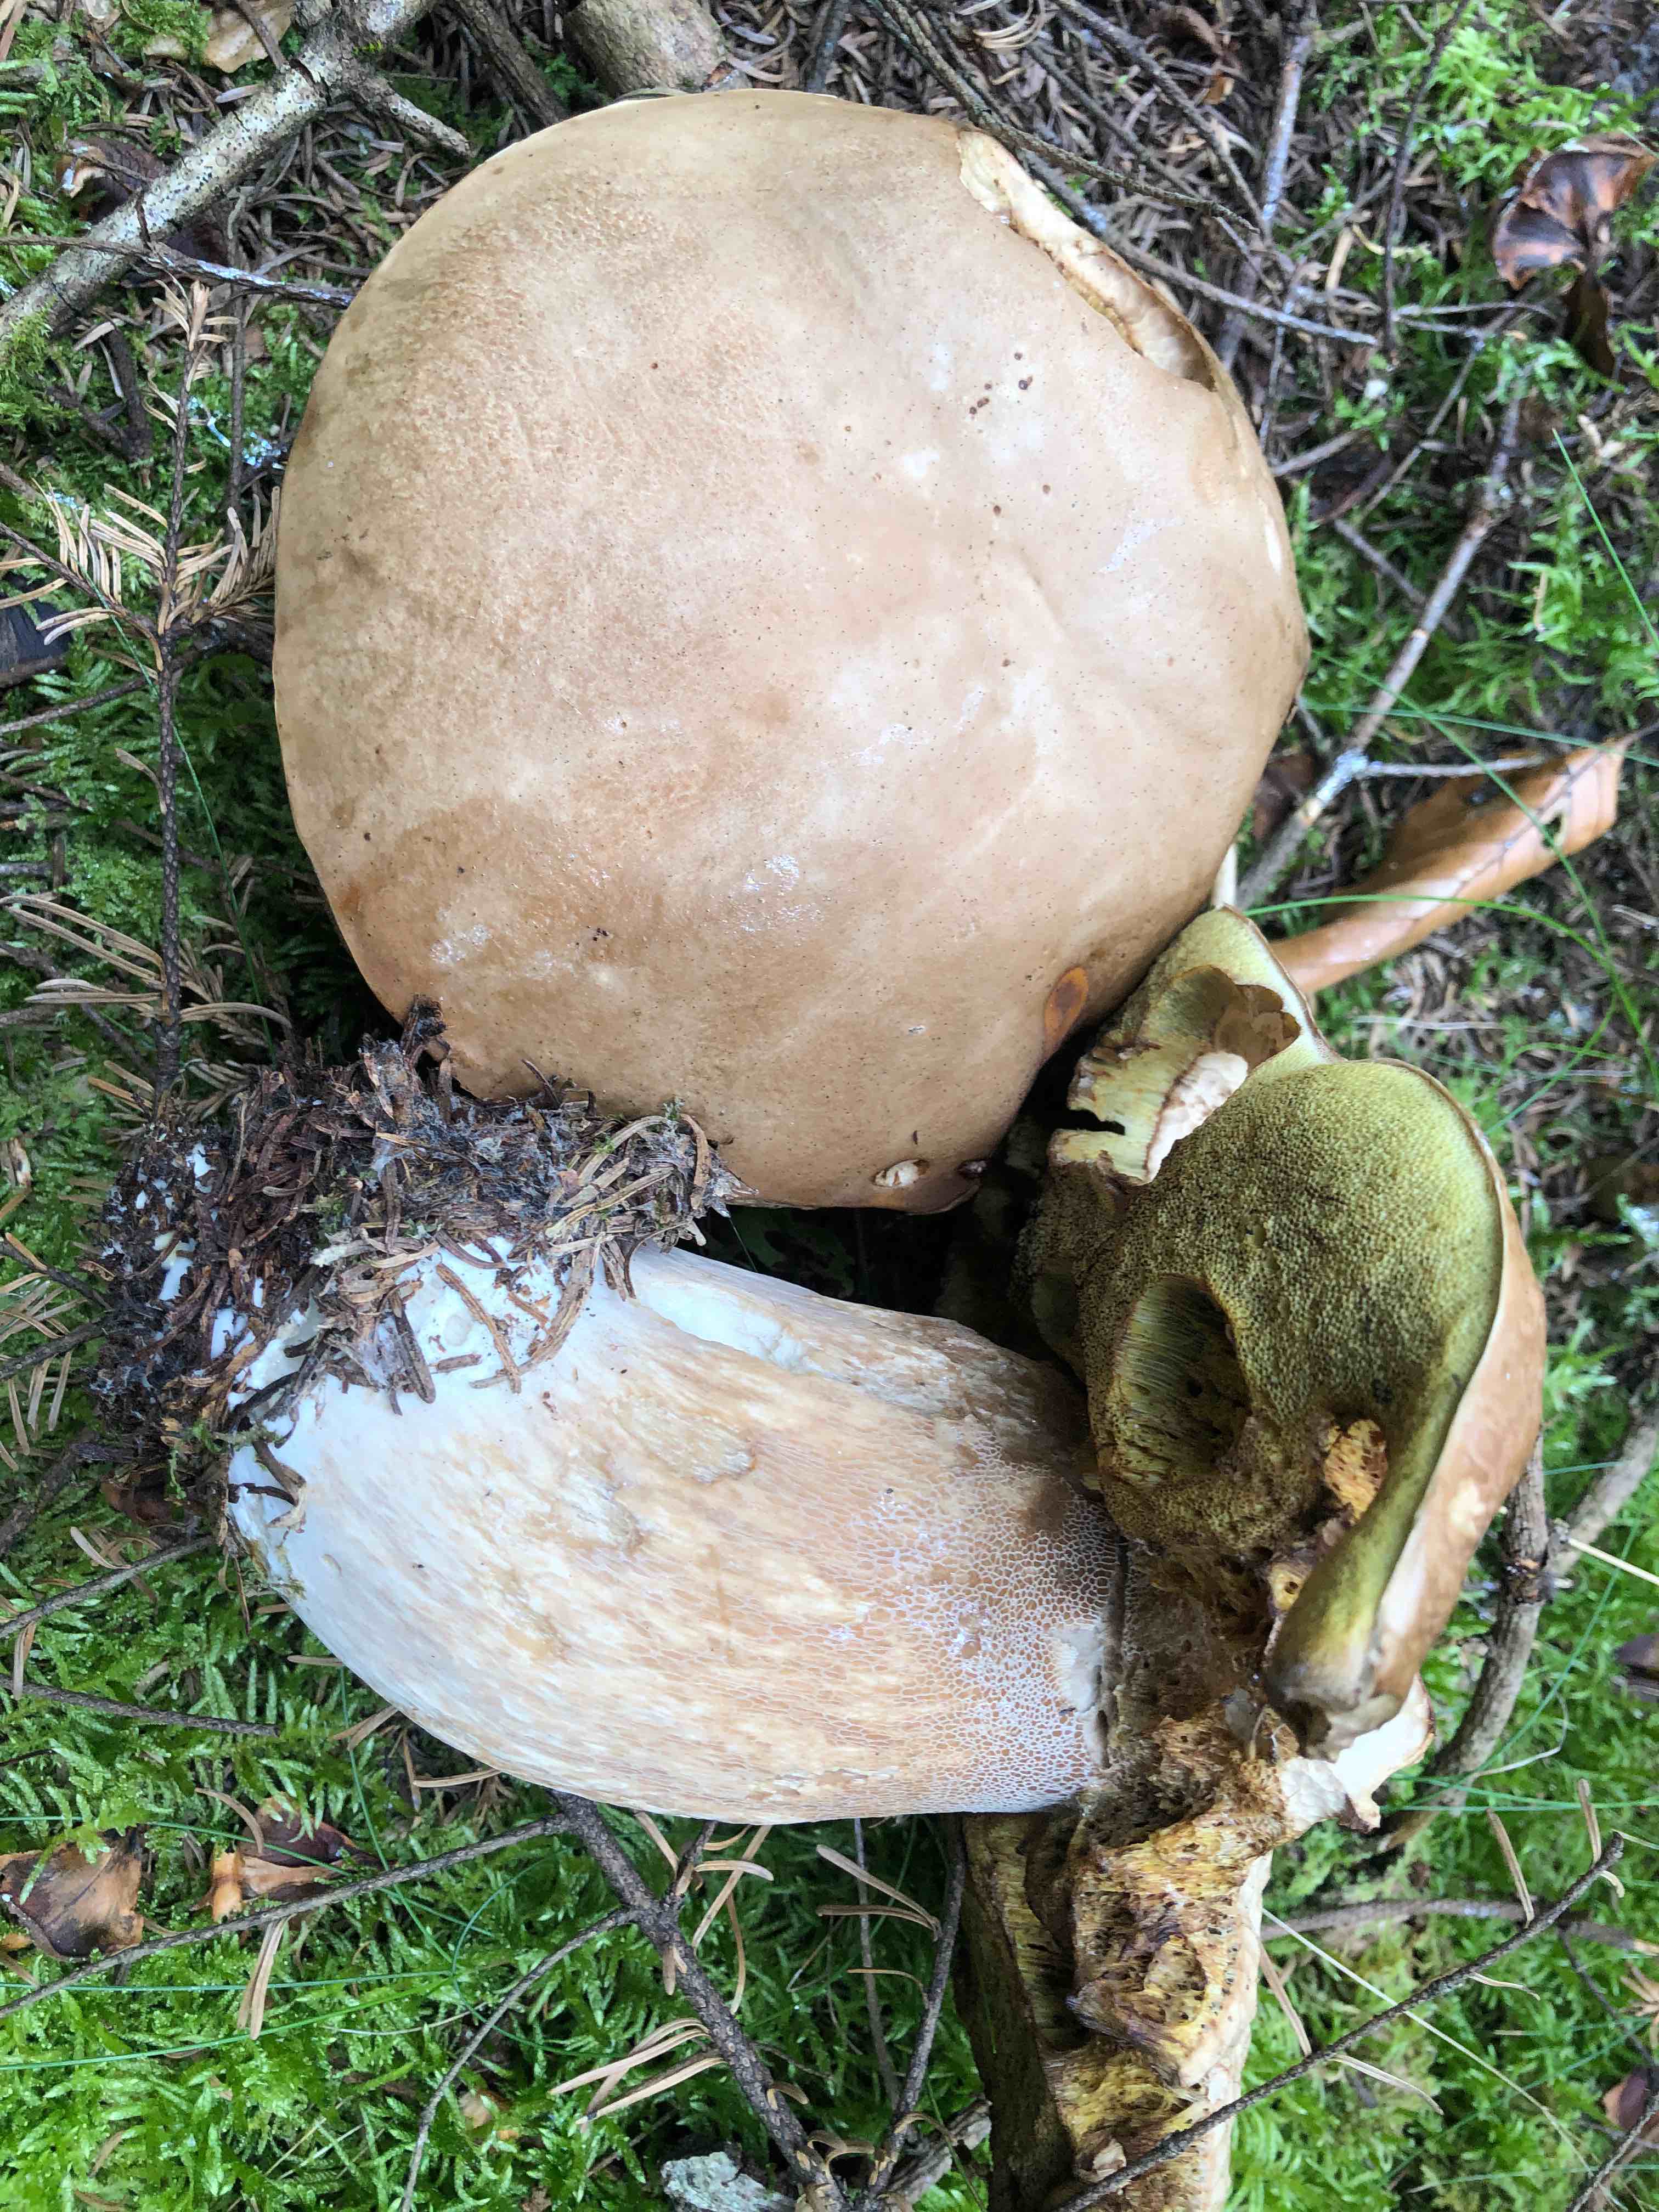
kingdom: Fungi
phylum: Basidiomycota
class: Agaricomycetes
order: Boletales
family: Boletaceae
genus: Boletus
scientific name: Boletus edulis
